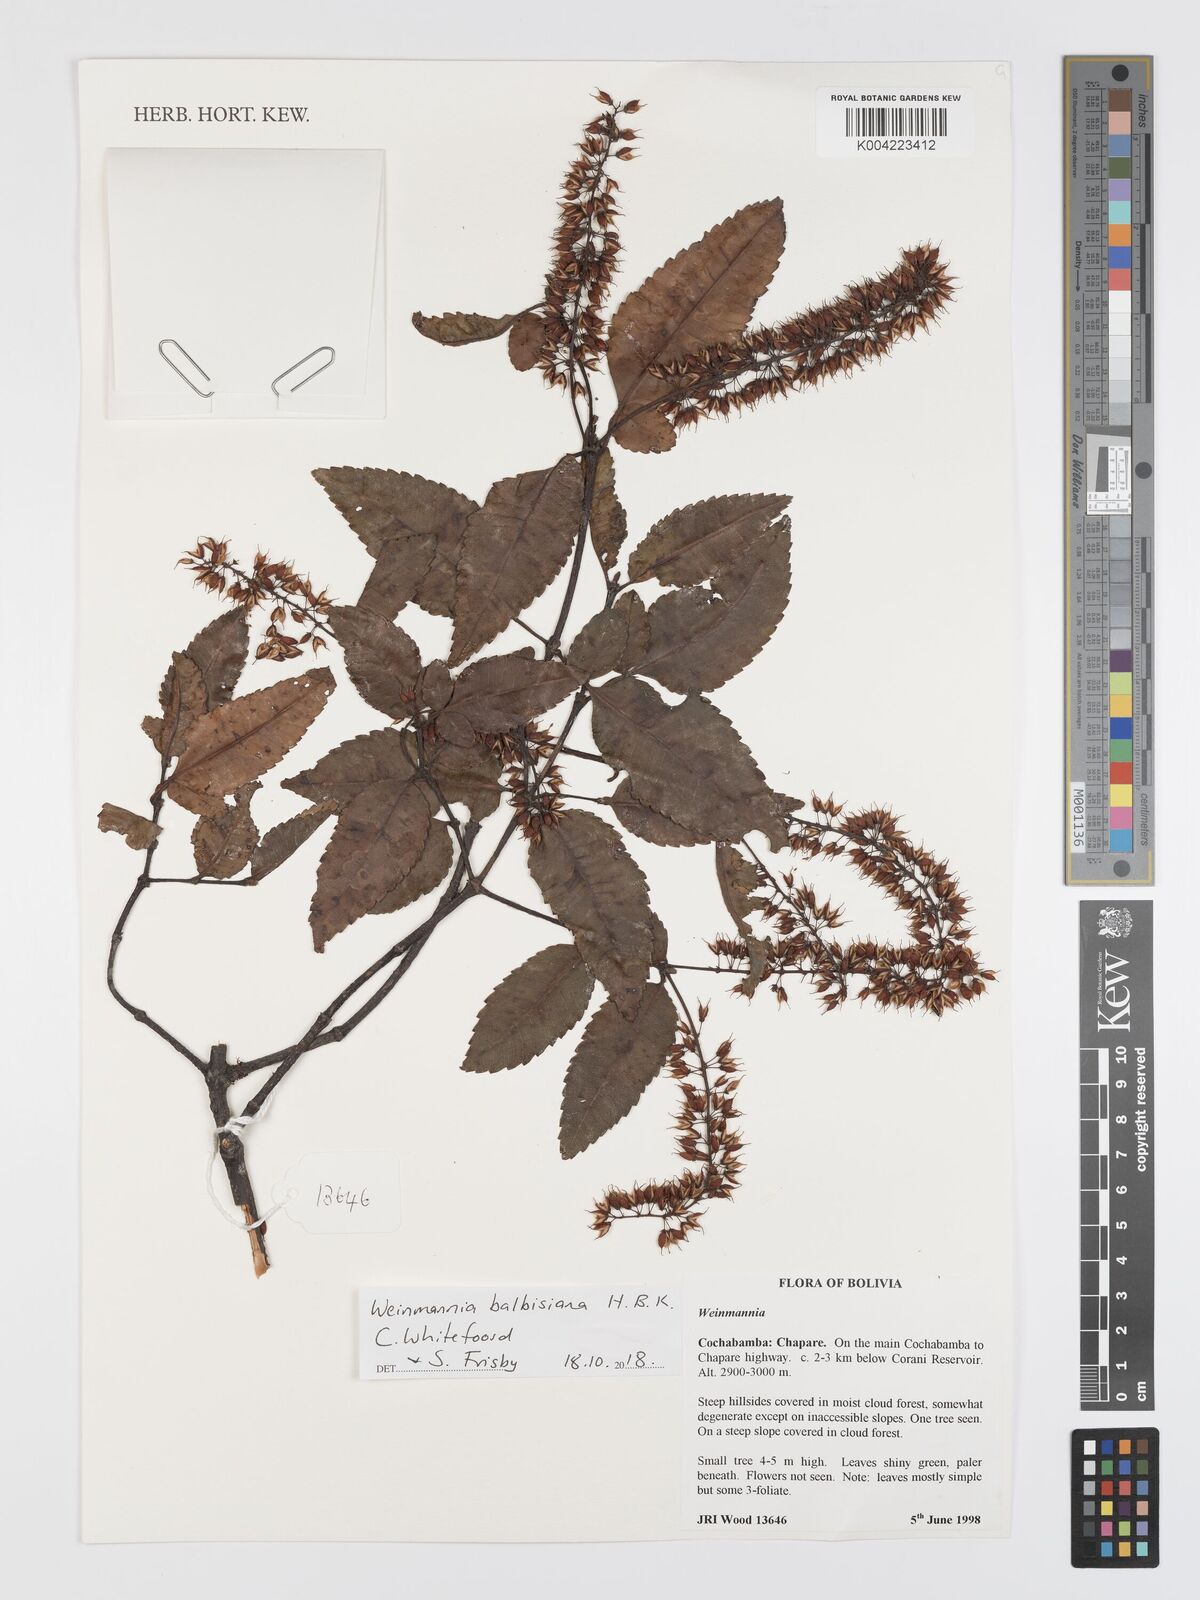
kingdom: Plantae
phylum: Tracheophyta
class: Magnoliopsida
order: Oxalidales
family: Cunoniaceae
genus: Weinmannia
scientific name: Weinmannia balbisana
